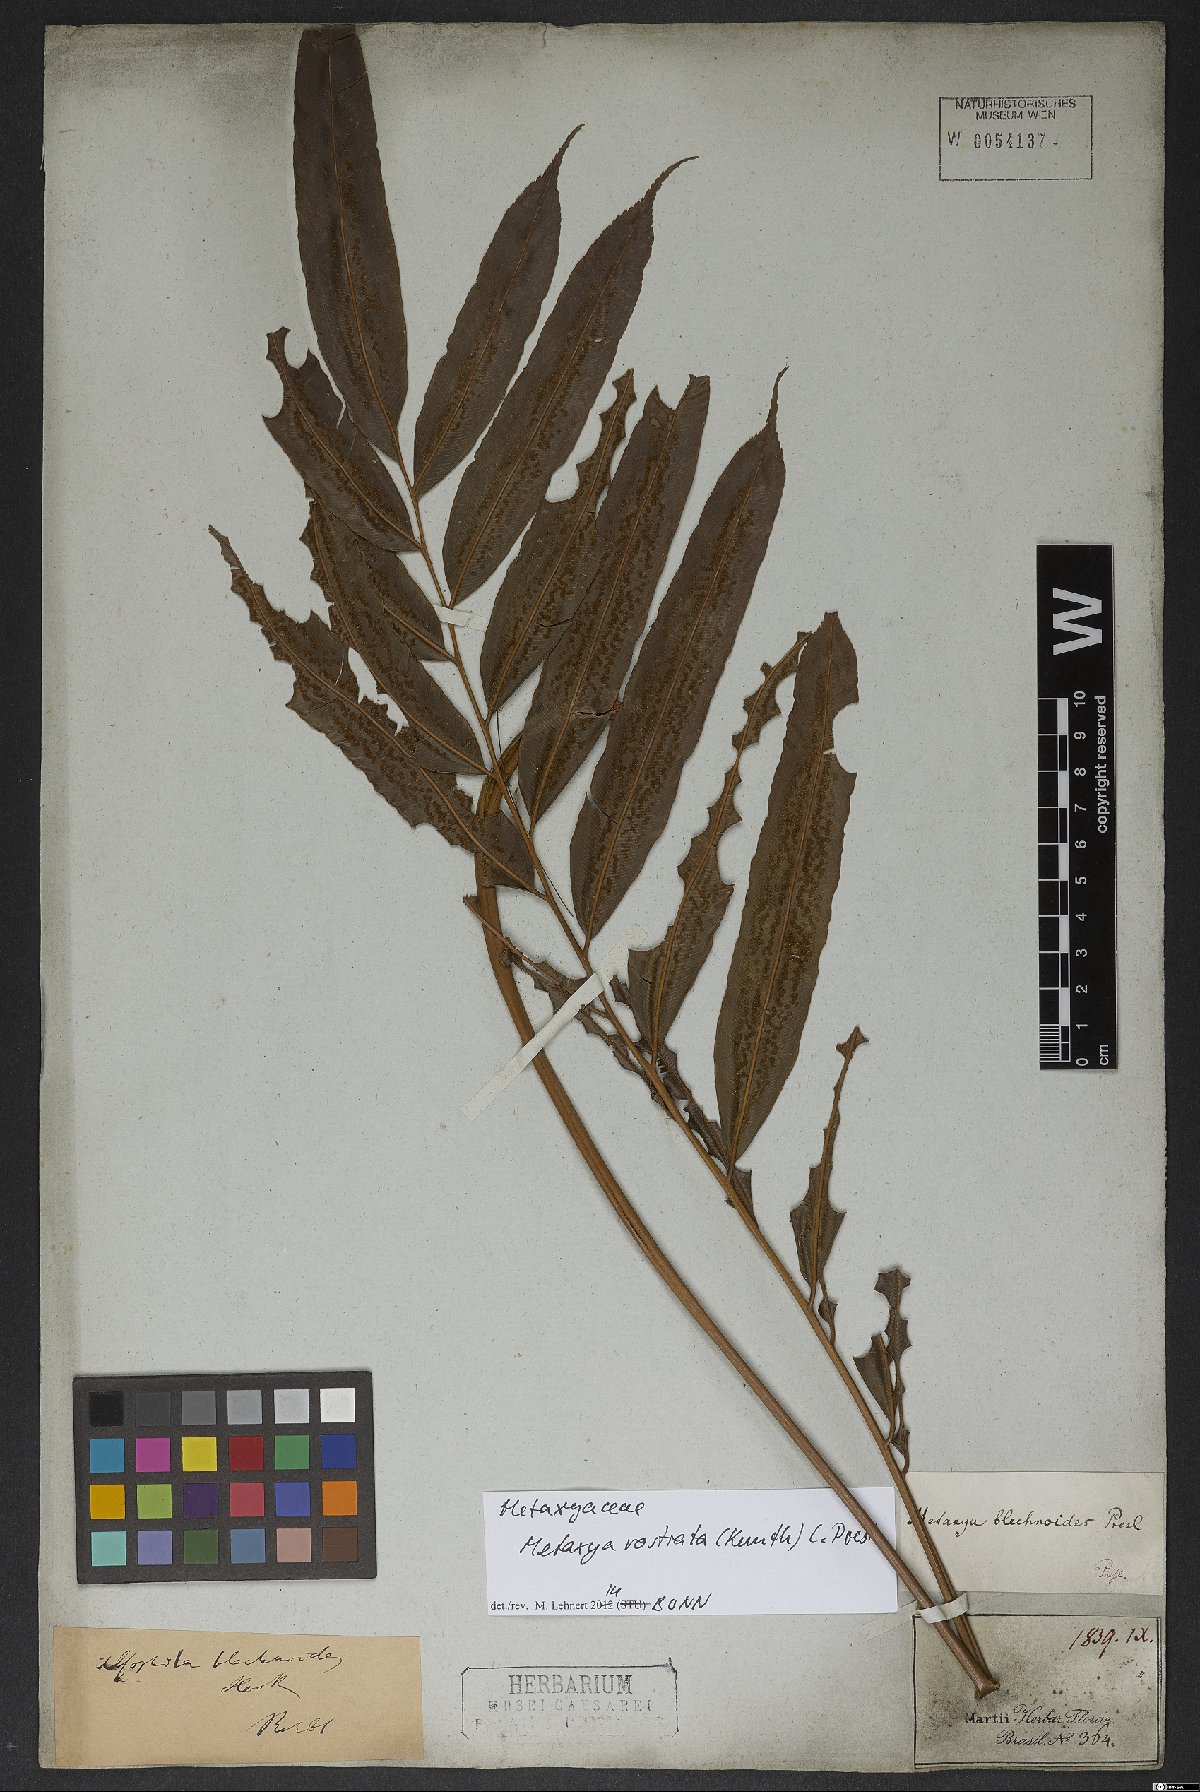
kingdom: Plantae
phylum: Tracheophyta
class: Polypodiopsida
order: Cyatheales
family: Metaxyaceae
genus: Metaxya
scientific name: Metaxya rostrata
